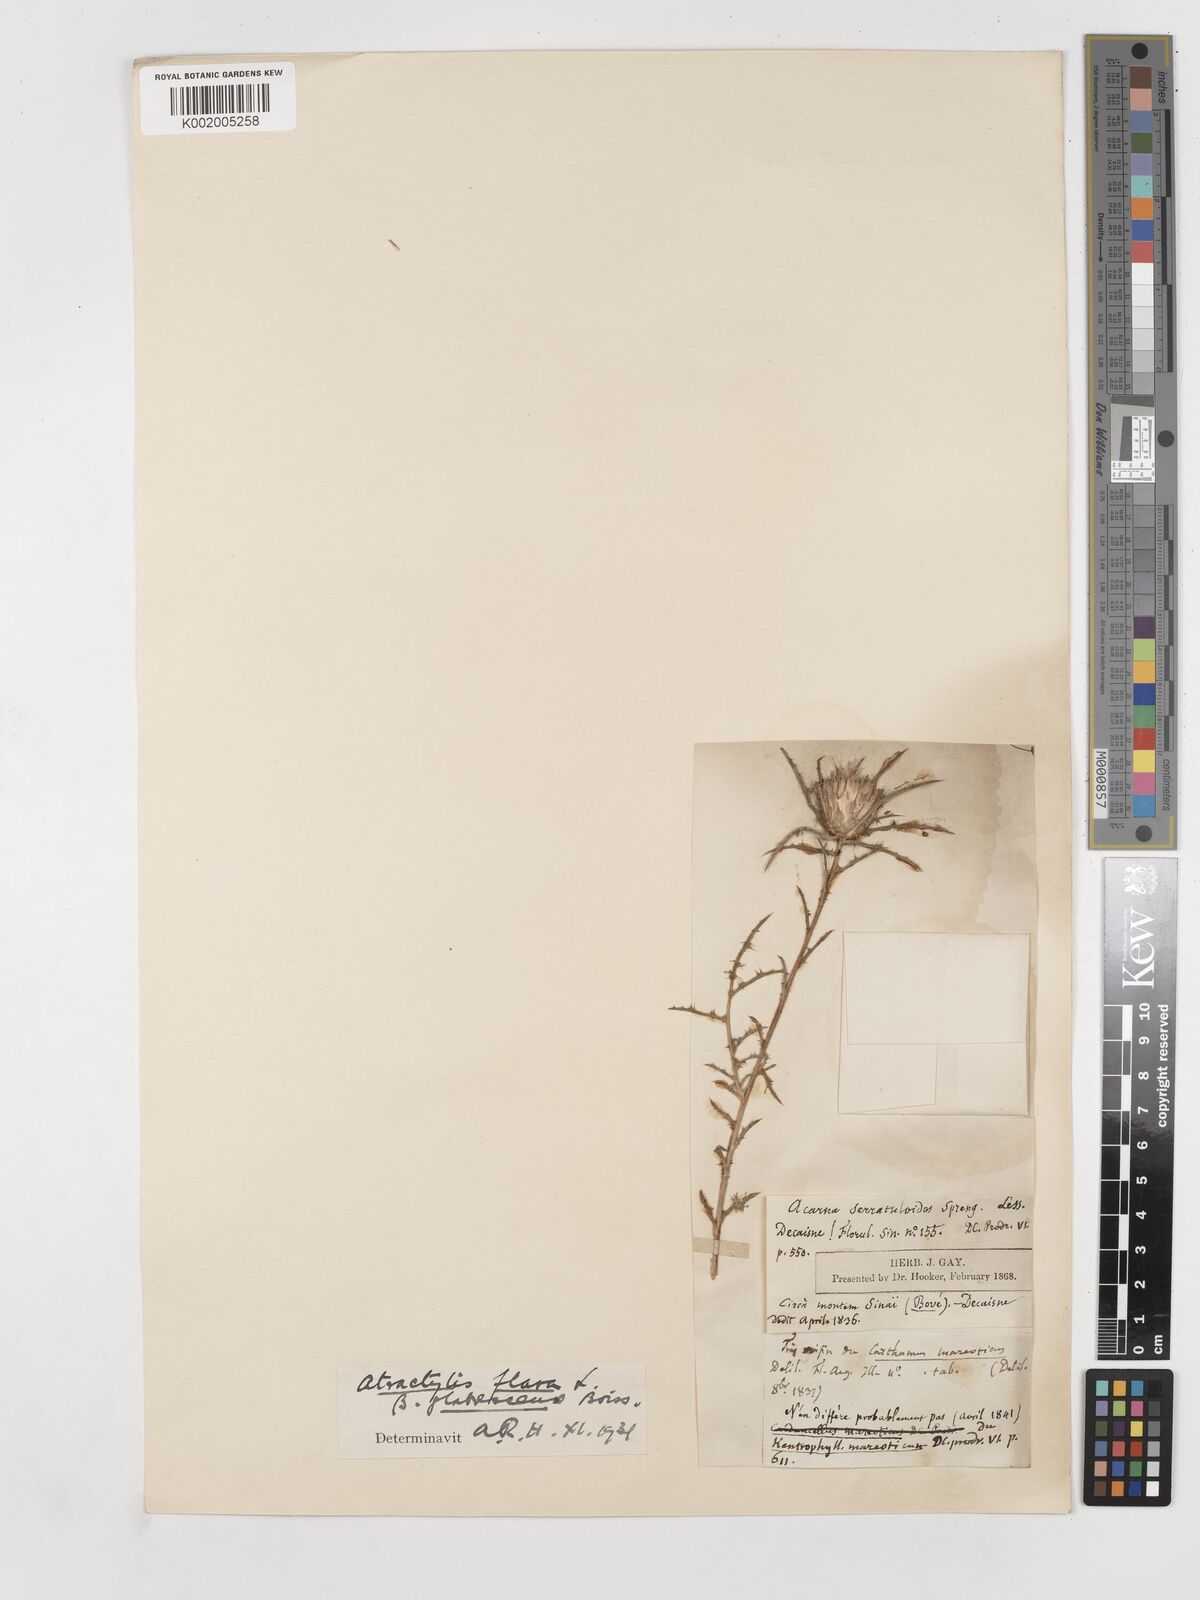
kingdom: Plantae
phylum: Tracheophyta
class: Magnoliopsida
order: Asterales
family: Asteraceae
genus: Atractylis
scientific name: Atractylis carduus
